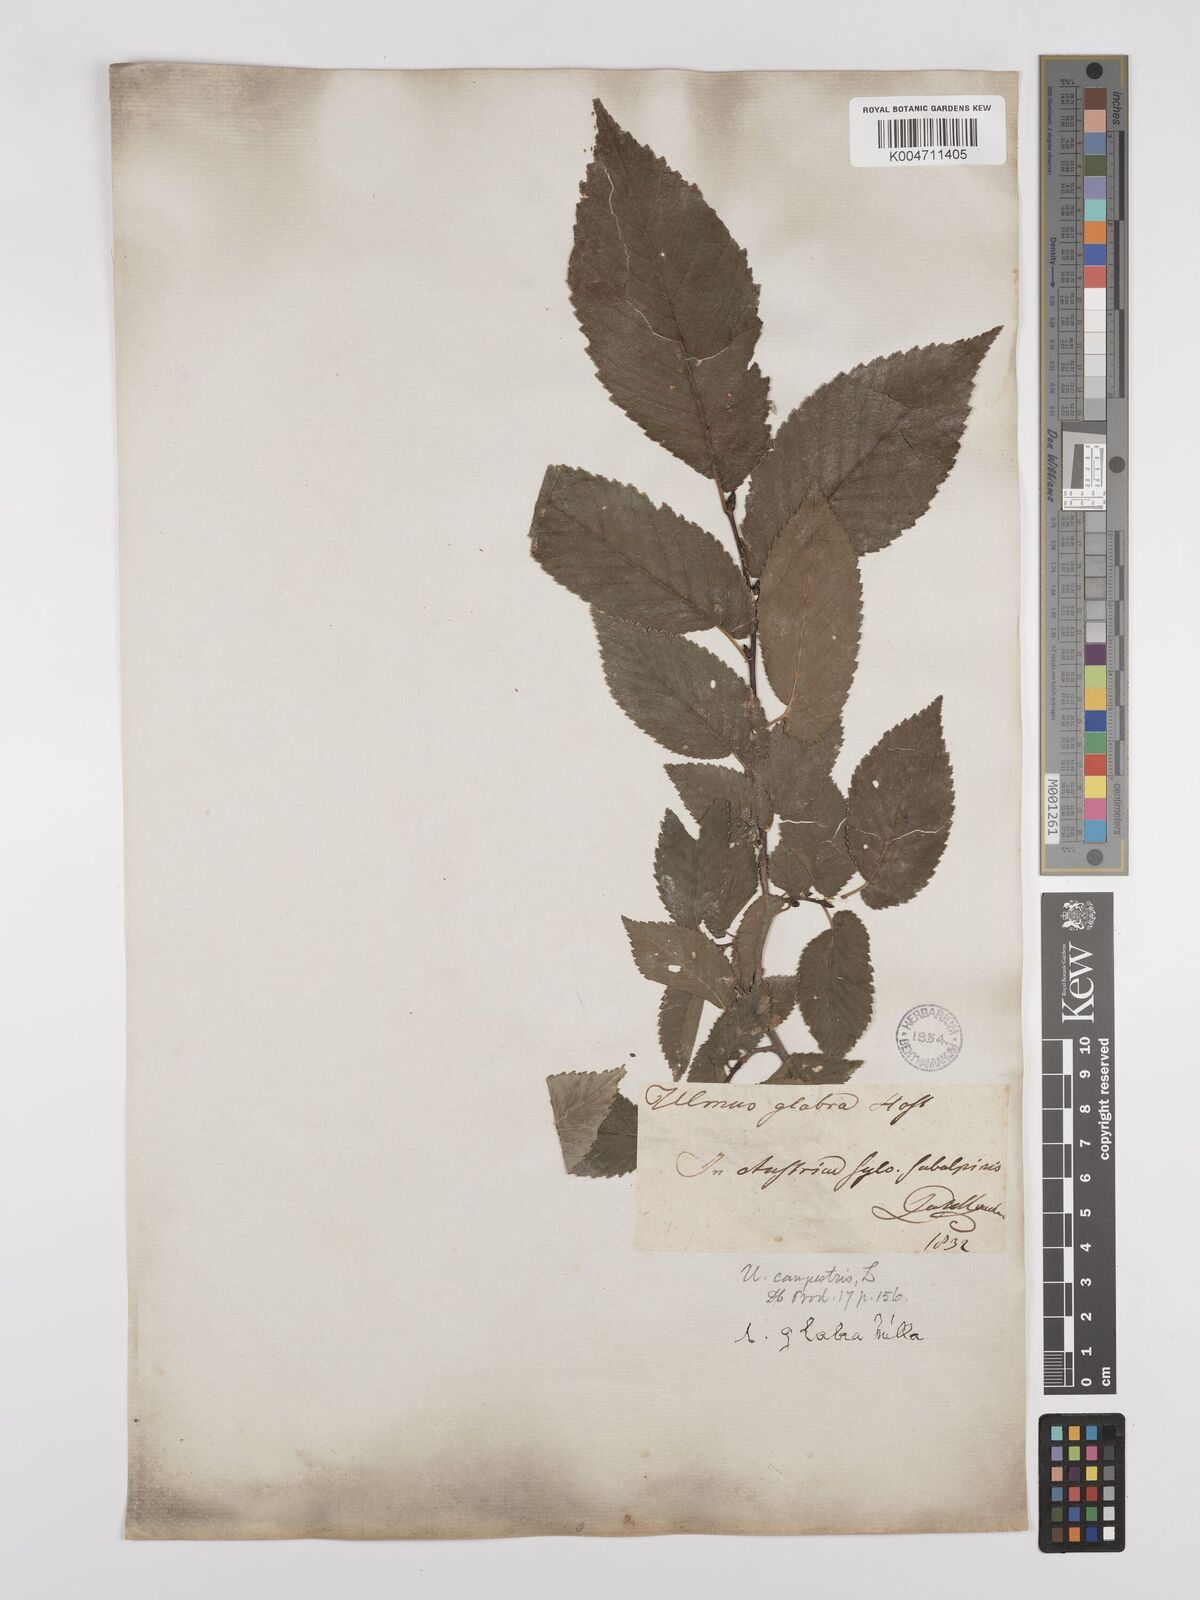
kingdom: Plantae
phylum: Tracheophyta
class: Magnoliopsida
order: Rosales
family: Ulmaceae
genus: Ulmus
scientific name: Ulmus minor
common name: Small-leaved elm
